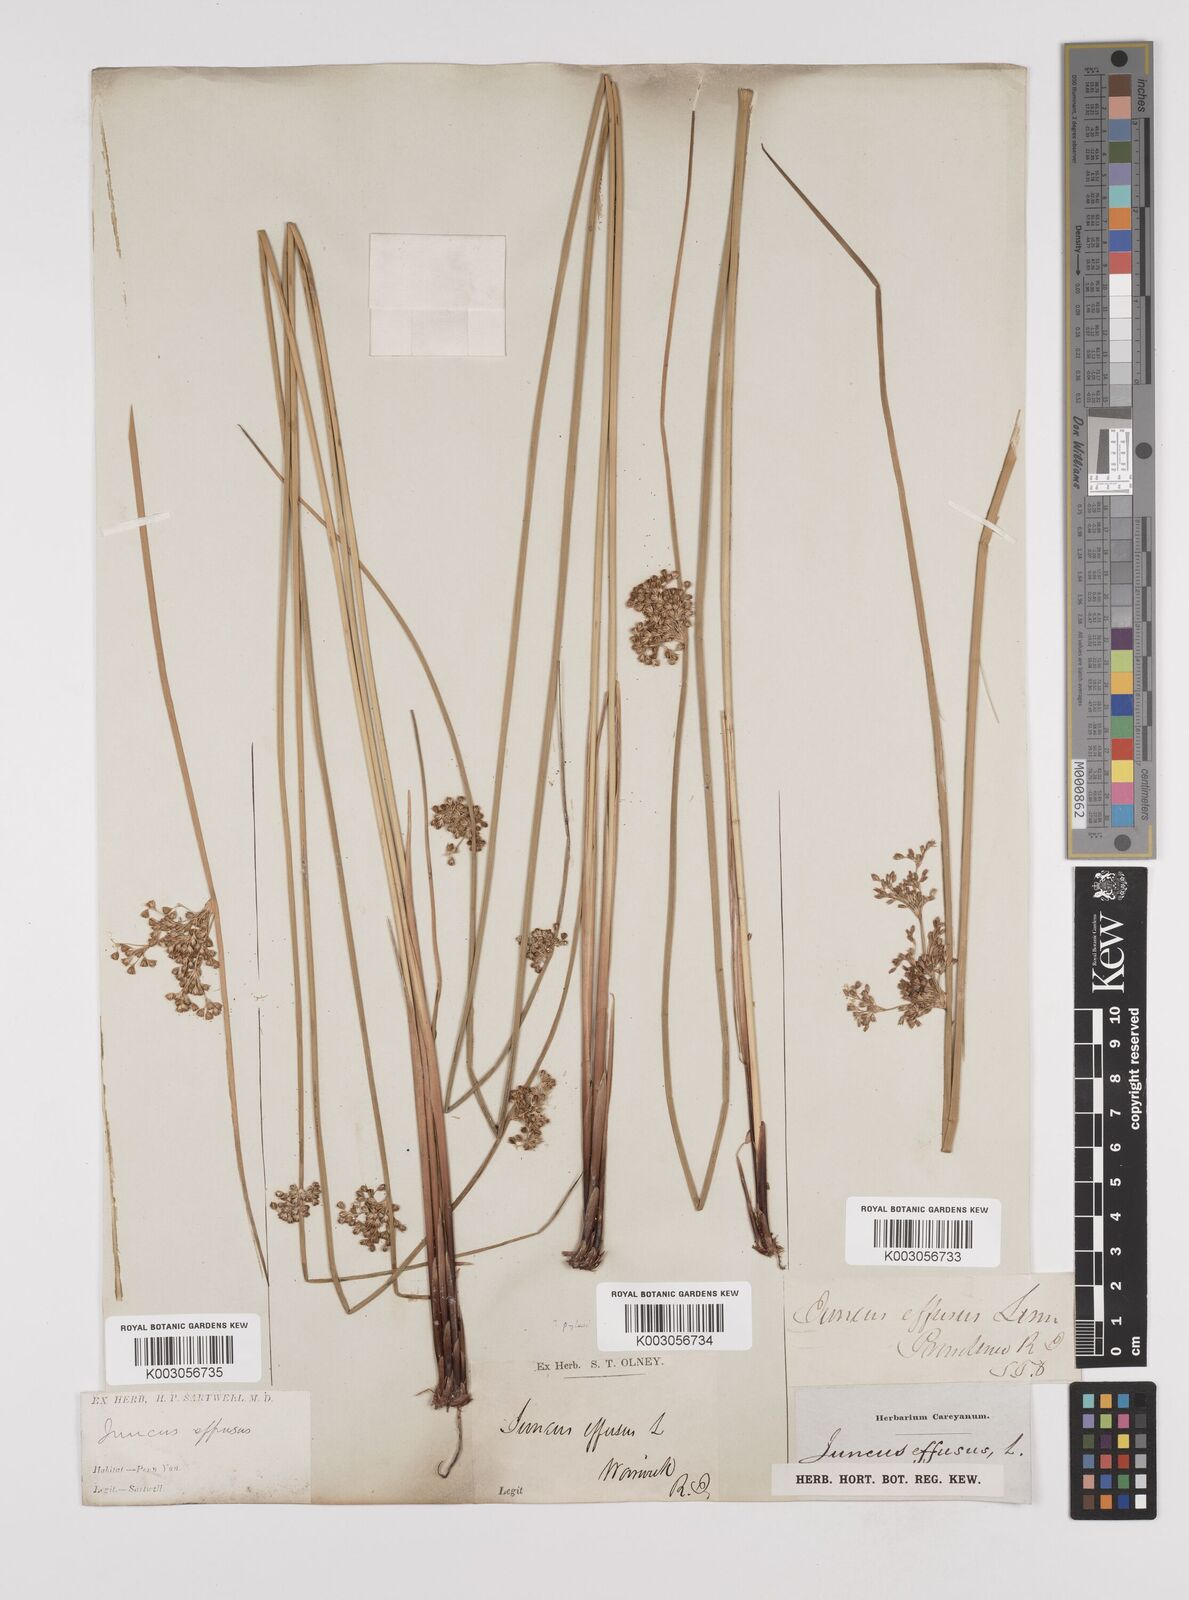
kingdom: Plantae
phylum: Tracheophyta
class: Liliopsida
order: Poales
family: Juncaceae
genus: Juncus
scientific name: Juncus effusus
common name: Soft rush
